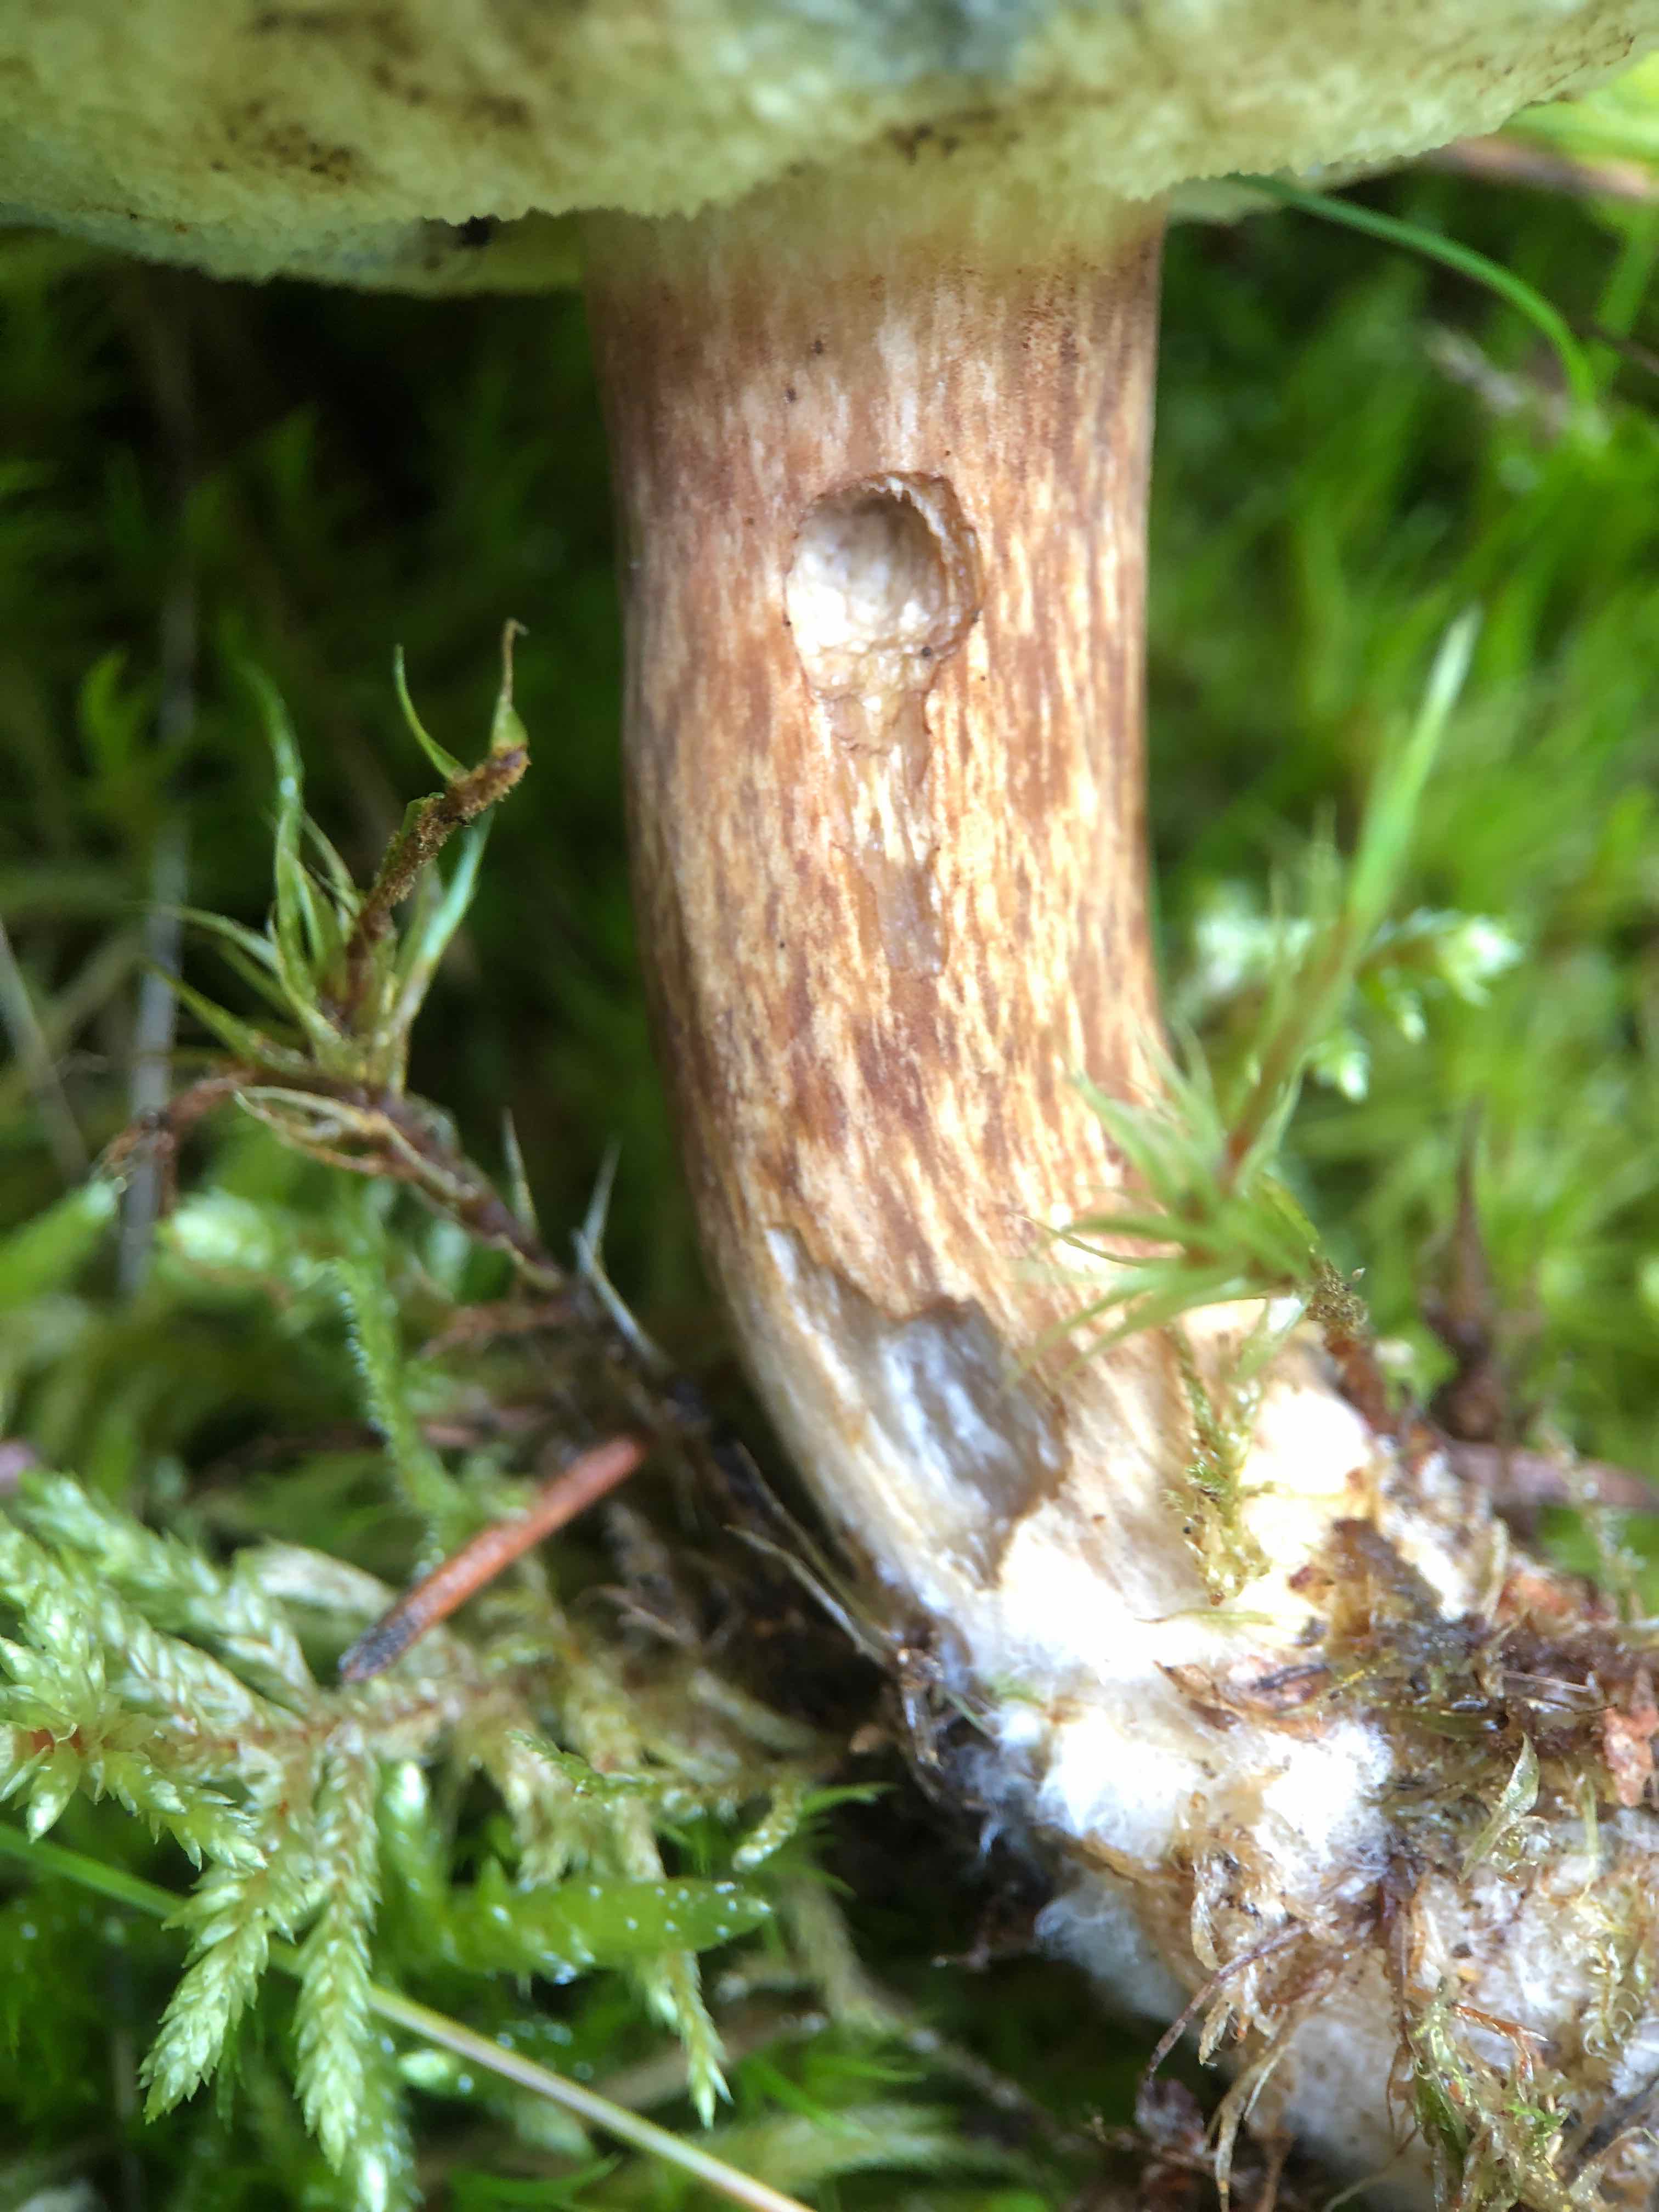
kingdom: Fungi
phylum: Basidiomycota
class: Agaricomycetes
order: Boletales
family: Boletaceae
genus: Imleria
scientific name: Imleria badia
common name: brunstokket rørhat
